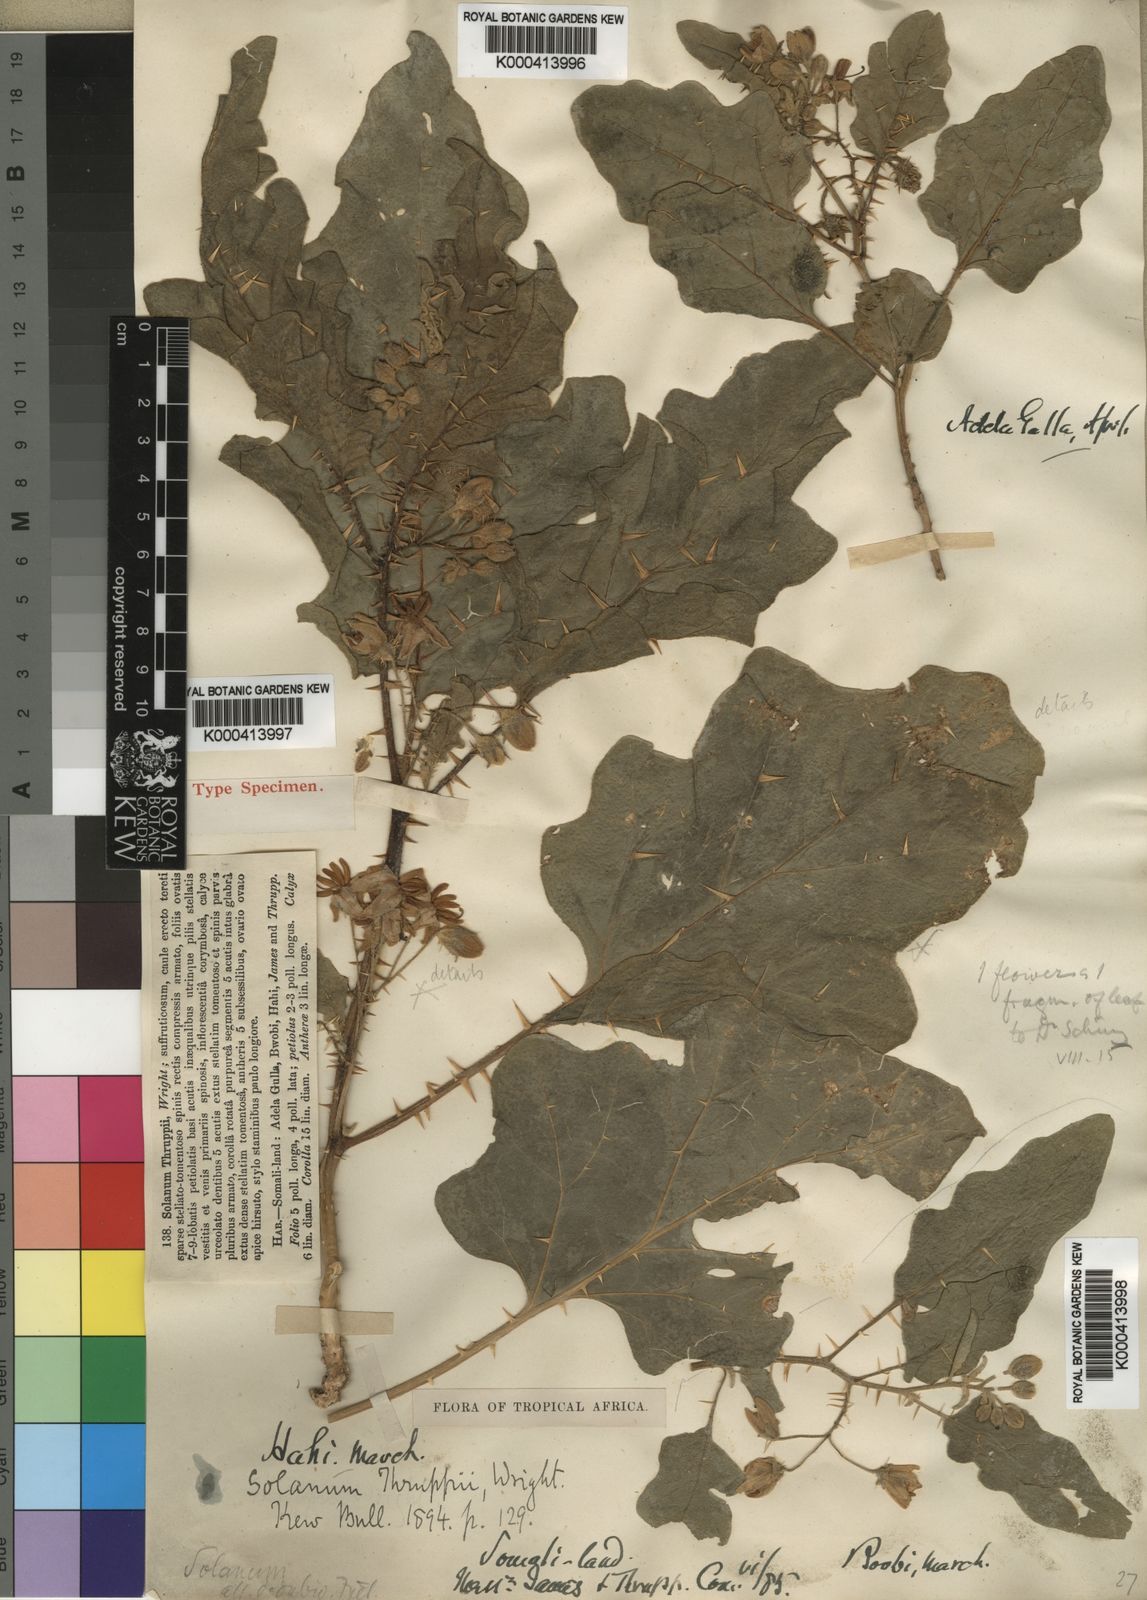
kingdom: Plantae
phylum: Tracheophyta
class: Magnoliopsida
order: Solanales
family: Solanaceae
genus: Solanum
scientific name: Solanum coagulans
